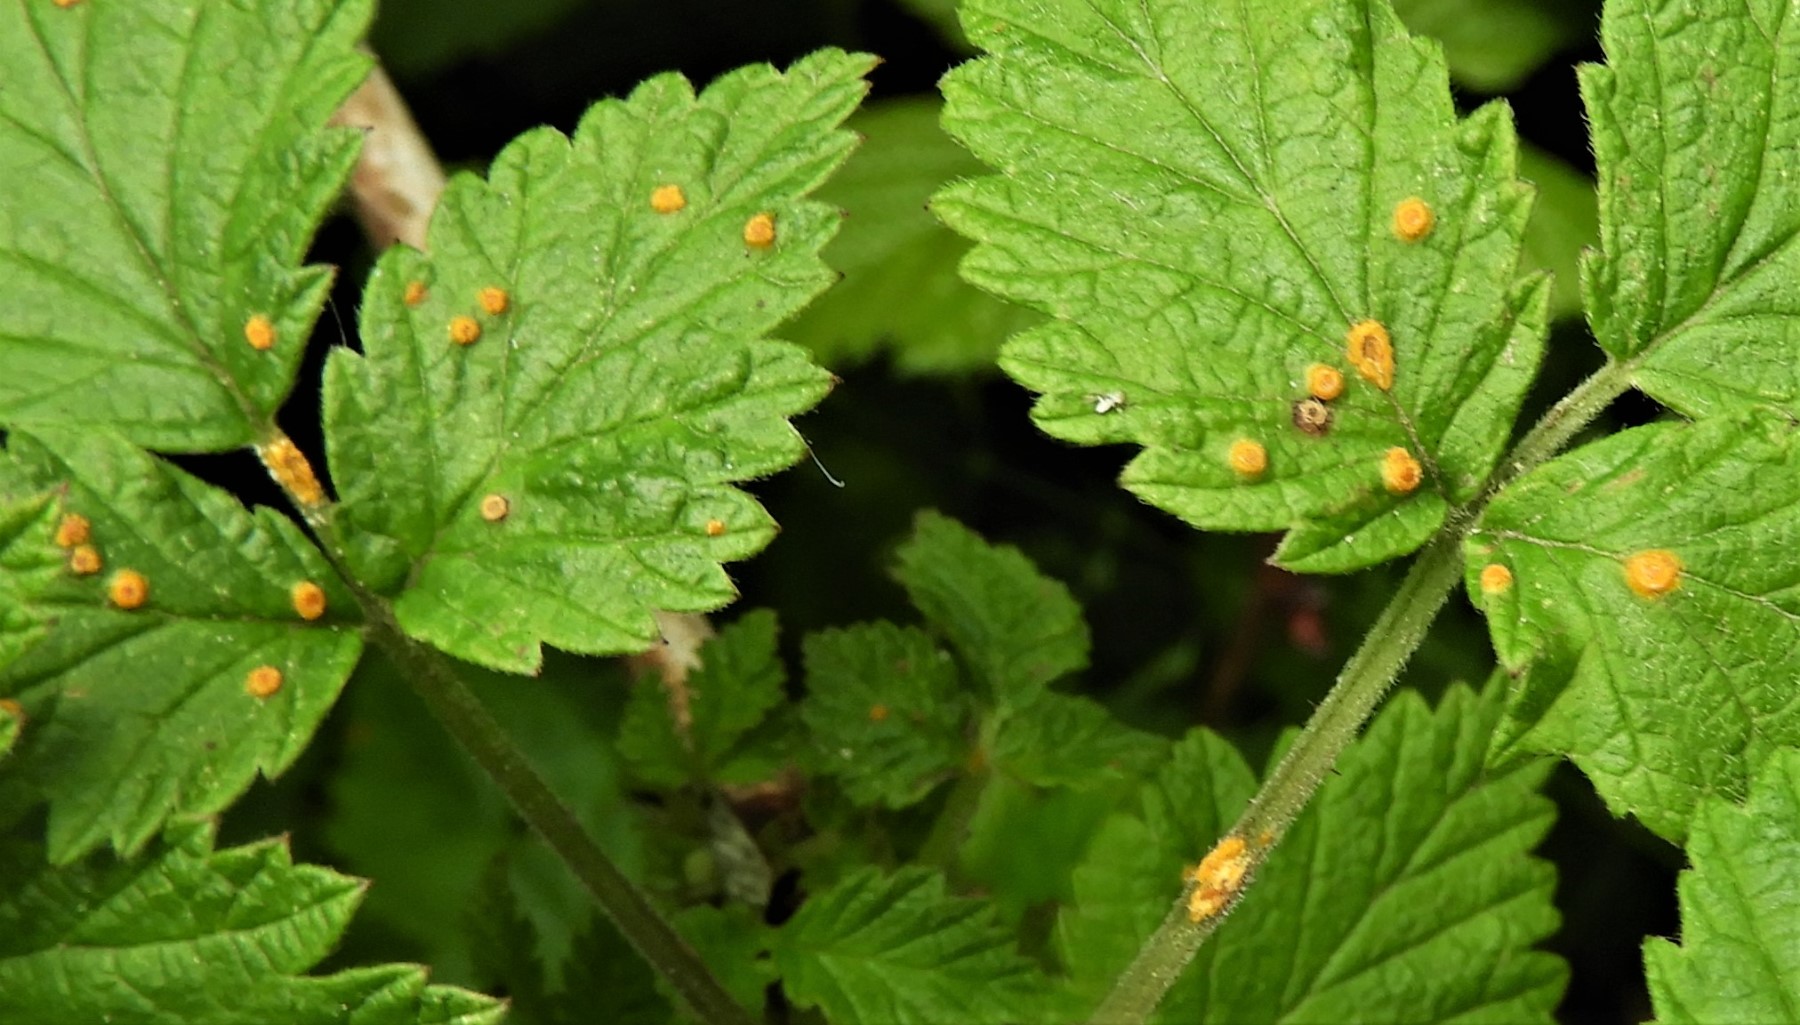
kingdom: Fungi
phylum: Basidiomycota
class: Pucciniomycetes
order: Pucciniales
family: Phragmidiaceae
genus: Phragmidium
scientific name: Phragmidium rubi-idaei
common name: hindbær-flercellerust
